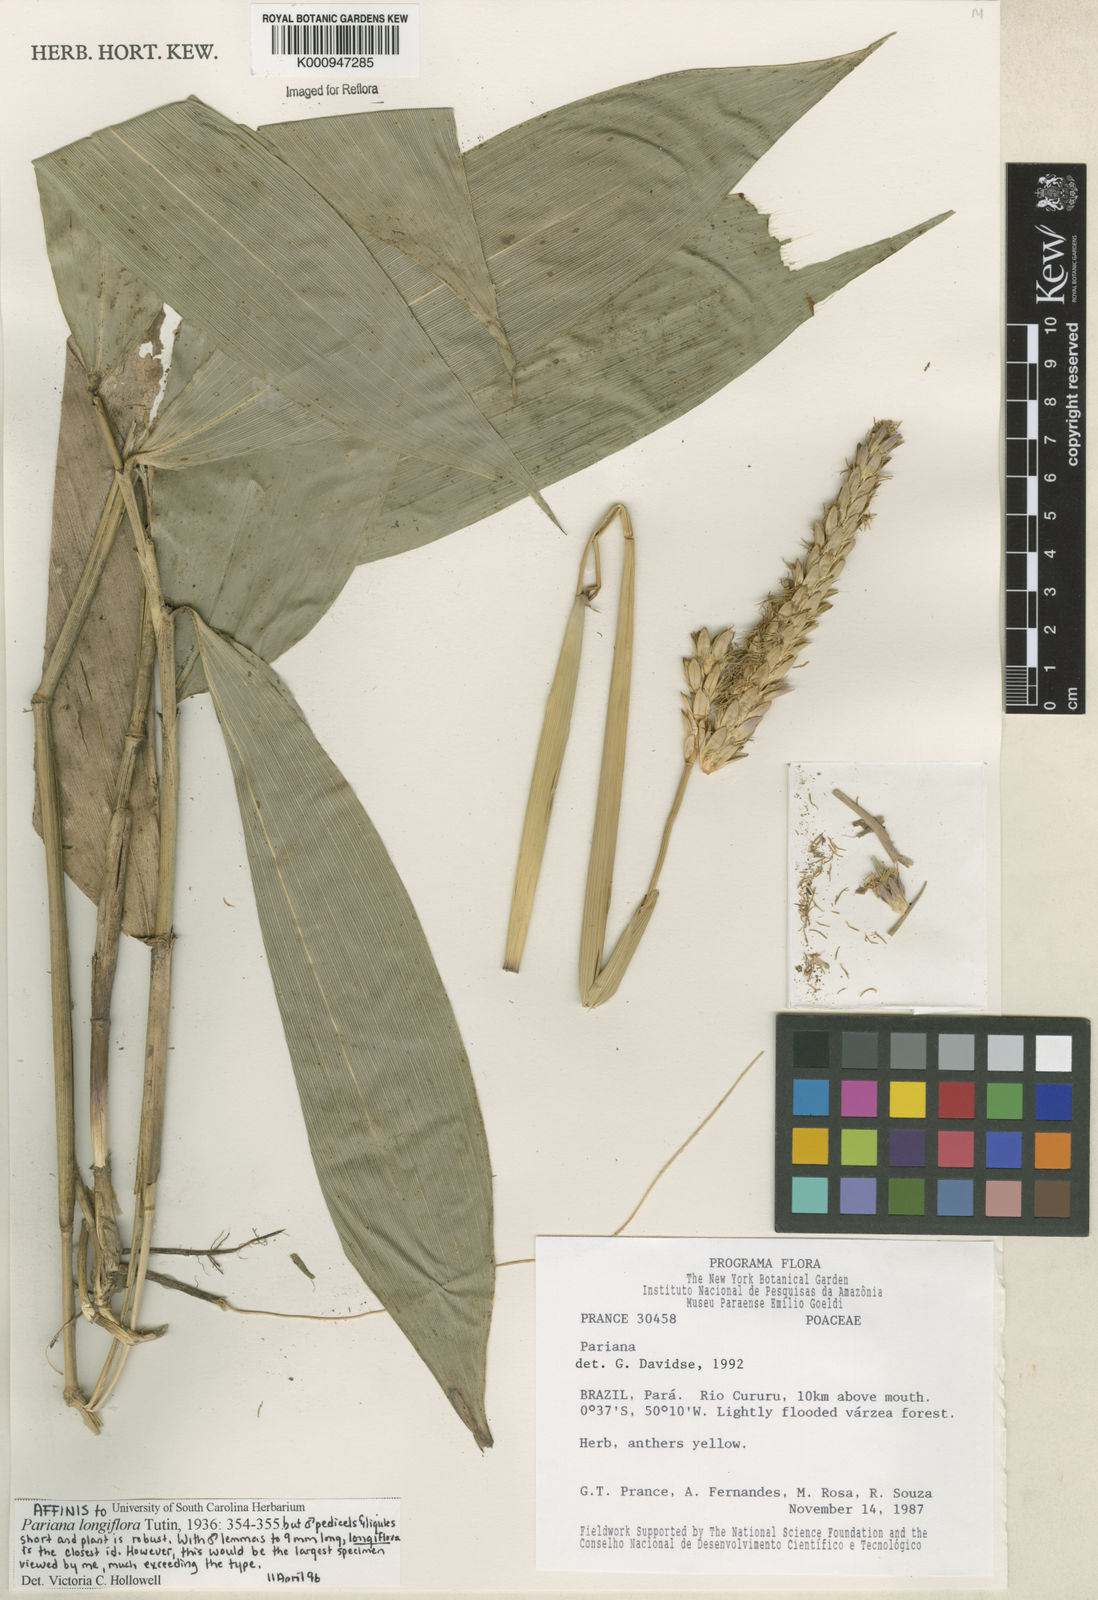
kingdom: Plantae
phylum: Tracheophyta
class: Liliopsida
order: Poales
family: Poaceae
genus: Pariana
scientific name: Pariana
